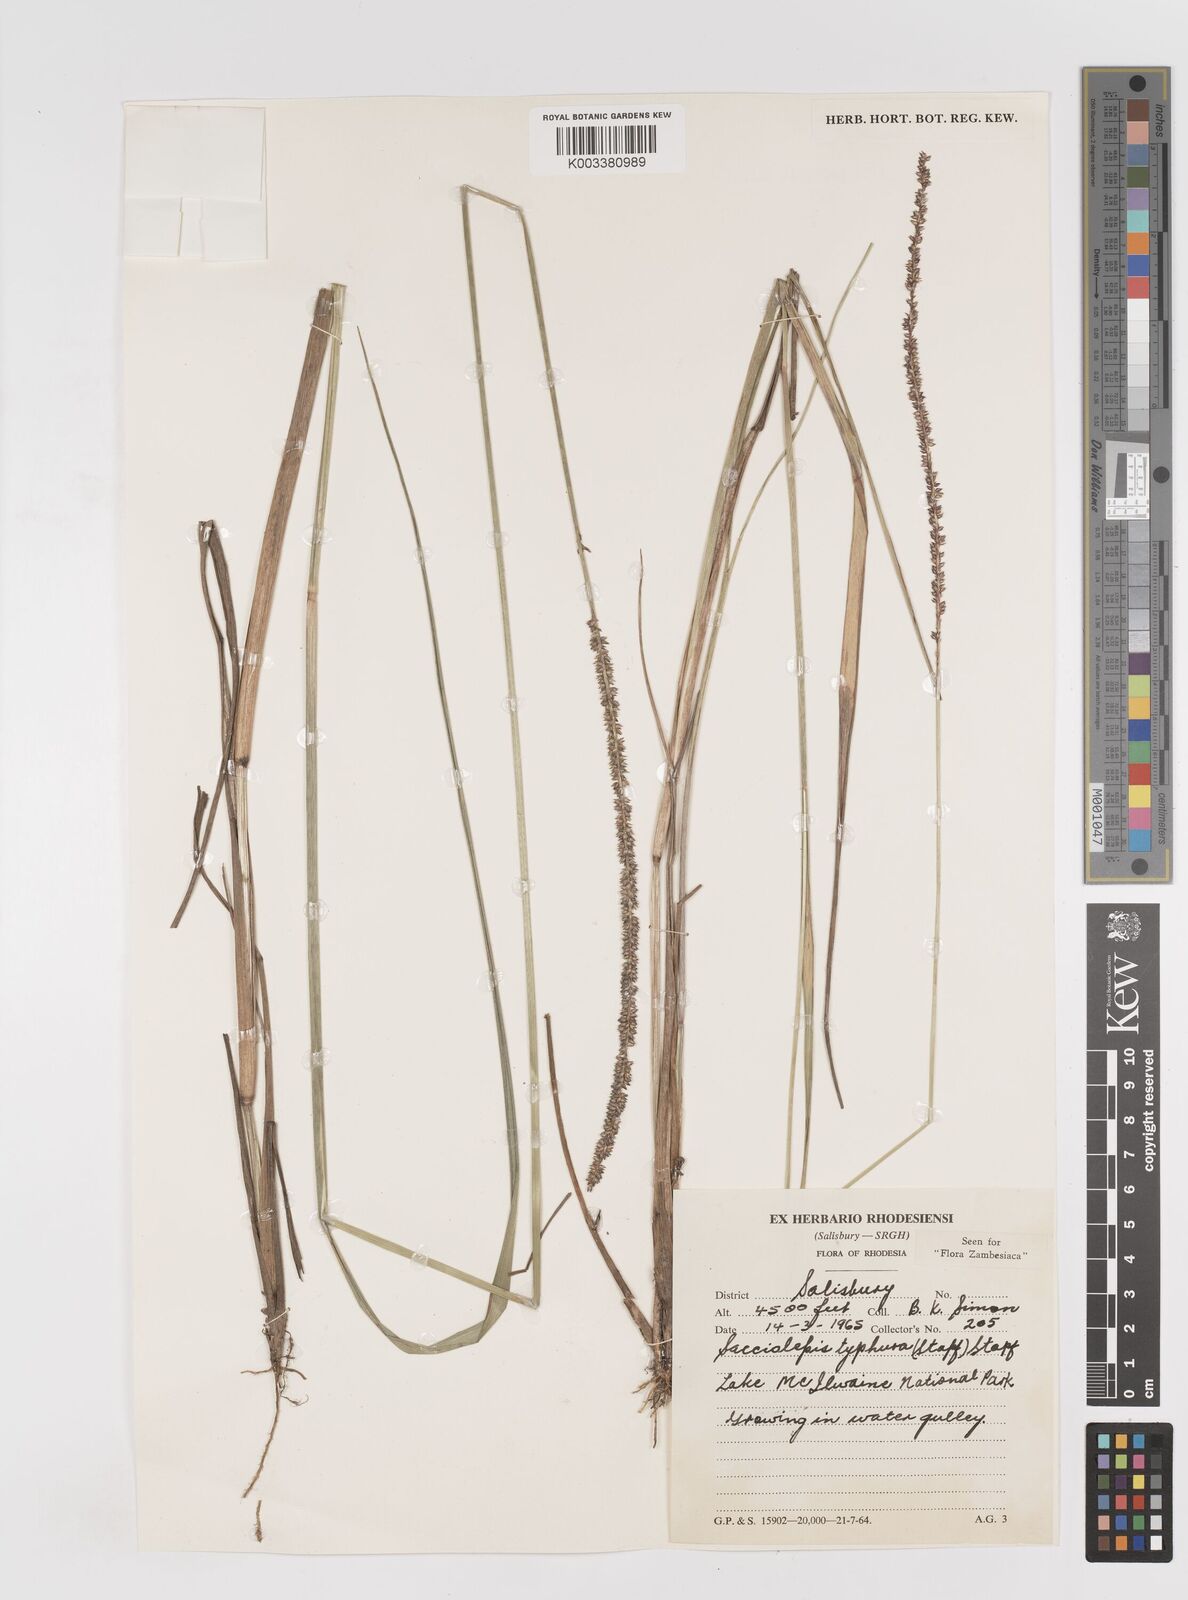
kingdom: Plantae
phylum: Tracheophyta
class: Liliopsida
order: Poales
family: Poaceae
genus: Sacciolepis
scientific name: Sacciolepis typhura
